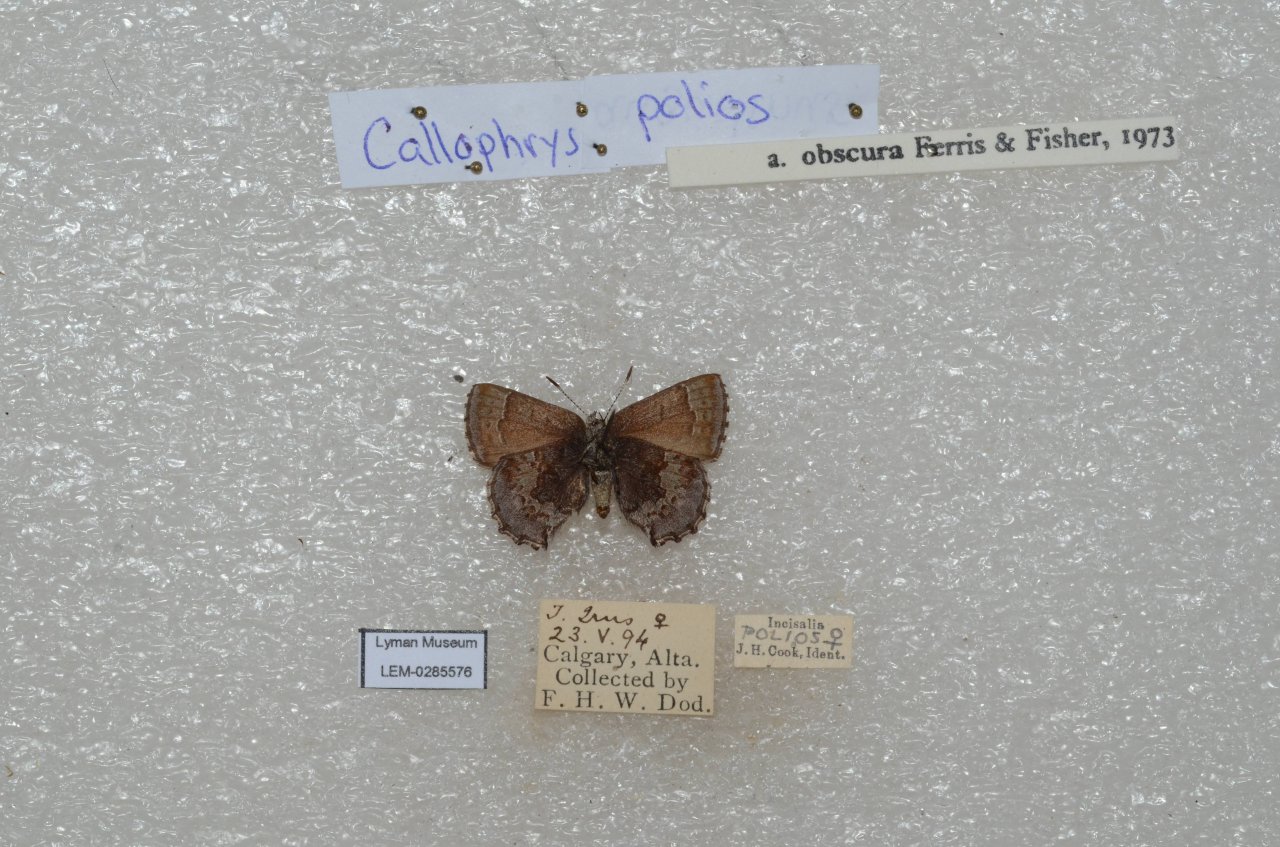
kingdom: Animalia
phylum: Arthropoda
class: Insecta
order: Lepidoptera
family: Lycaenidae
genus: Callophrys
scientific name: Callophrys polios
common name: Hoary Elfin
